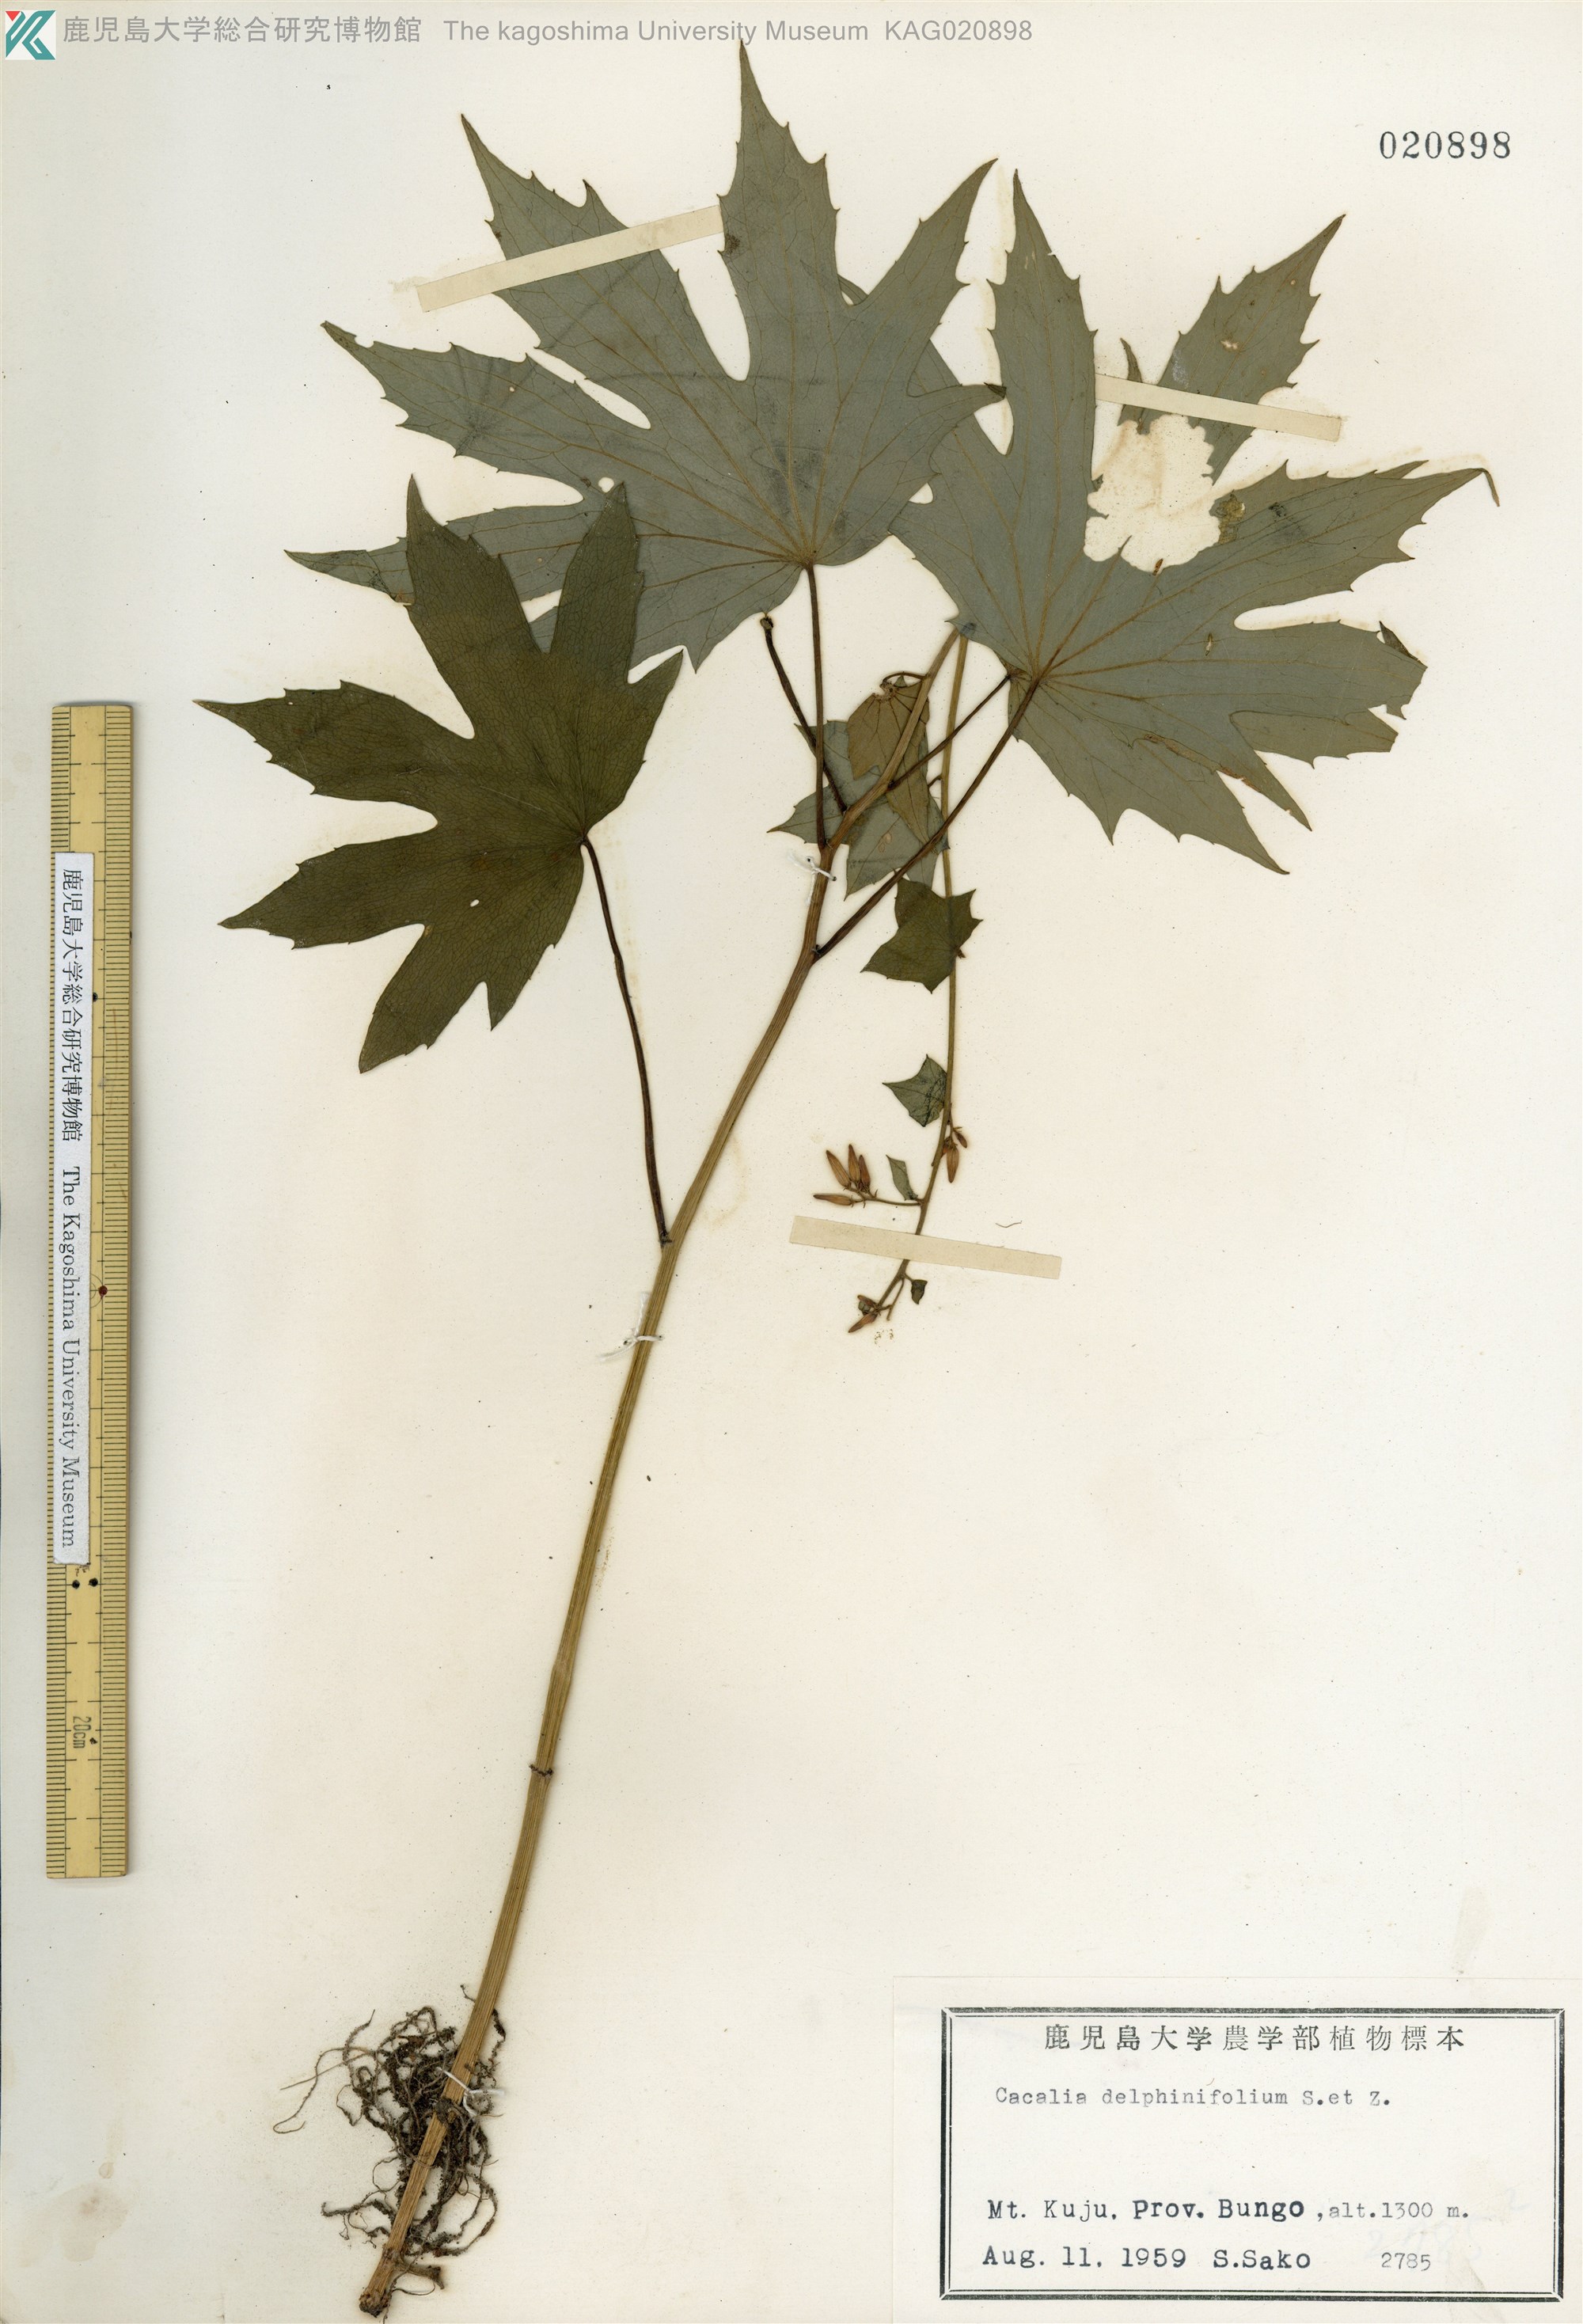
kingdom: Plantae
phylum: Tracheophyta
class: Magnoliopsida
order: Asterales
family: Asteraceae
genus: Japonicalia
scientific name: Japonicalia delphiniifolia
